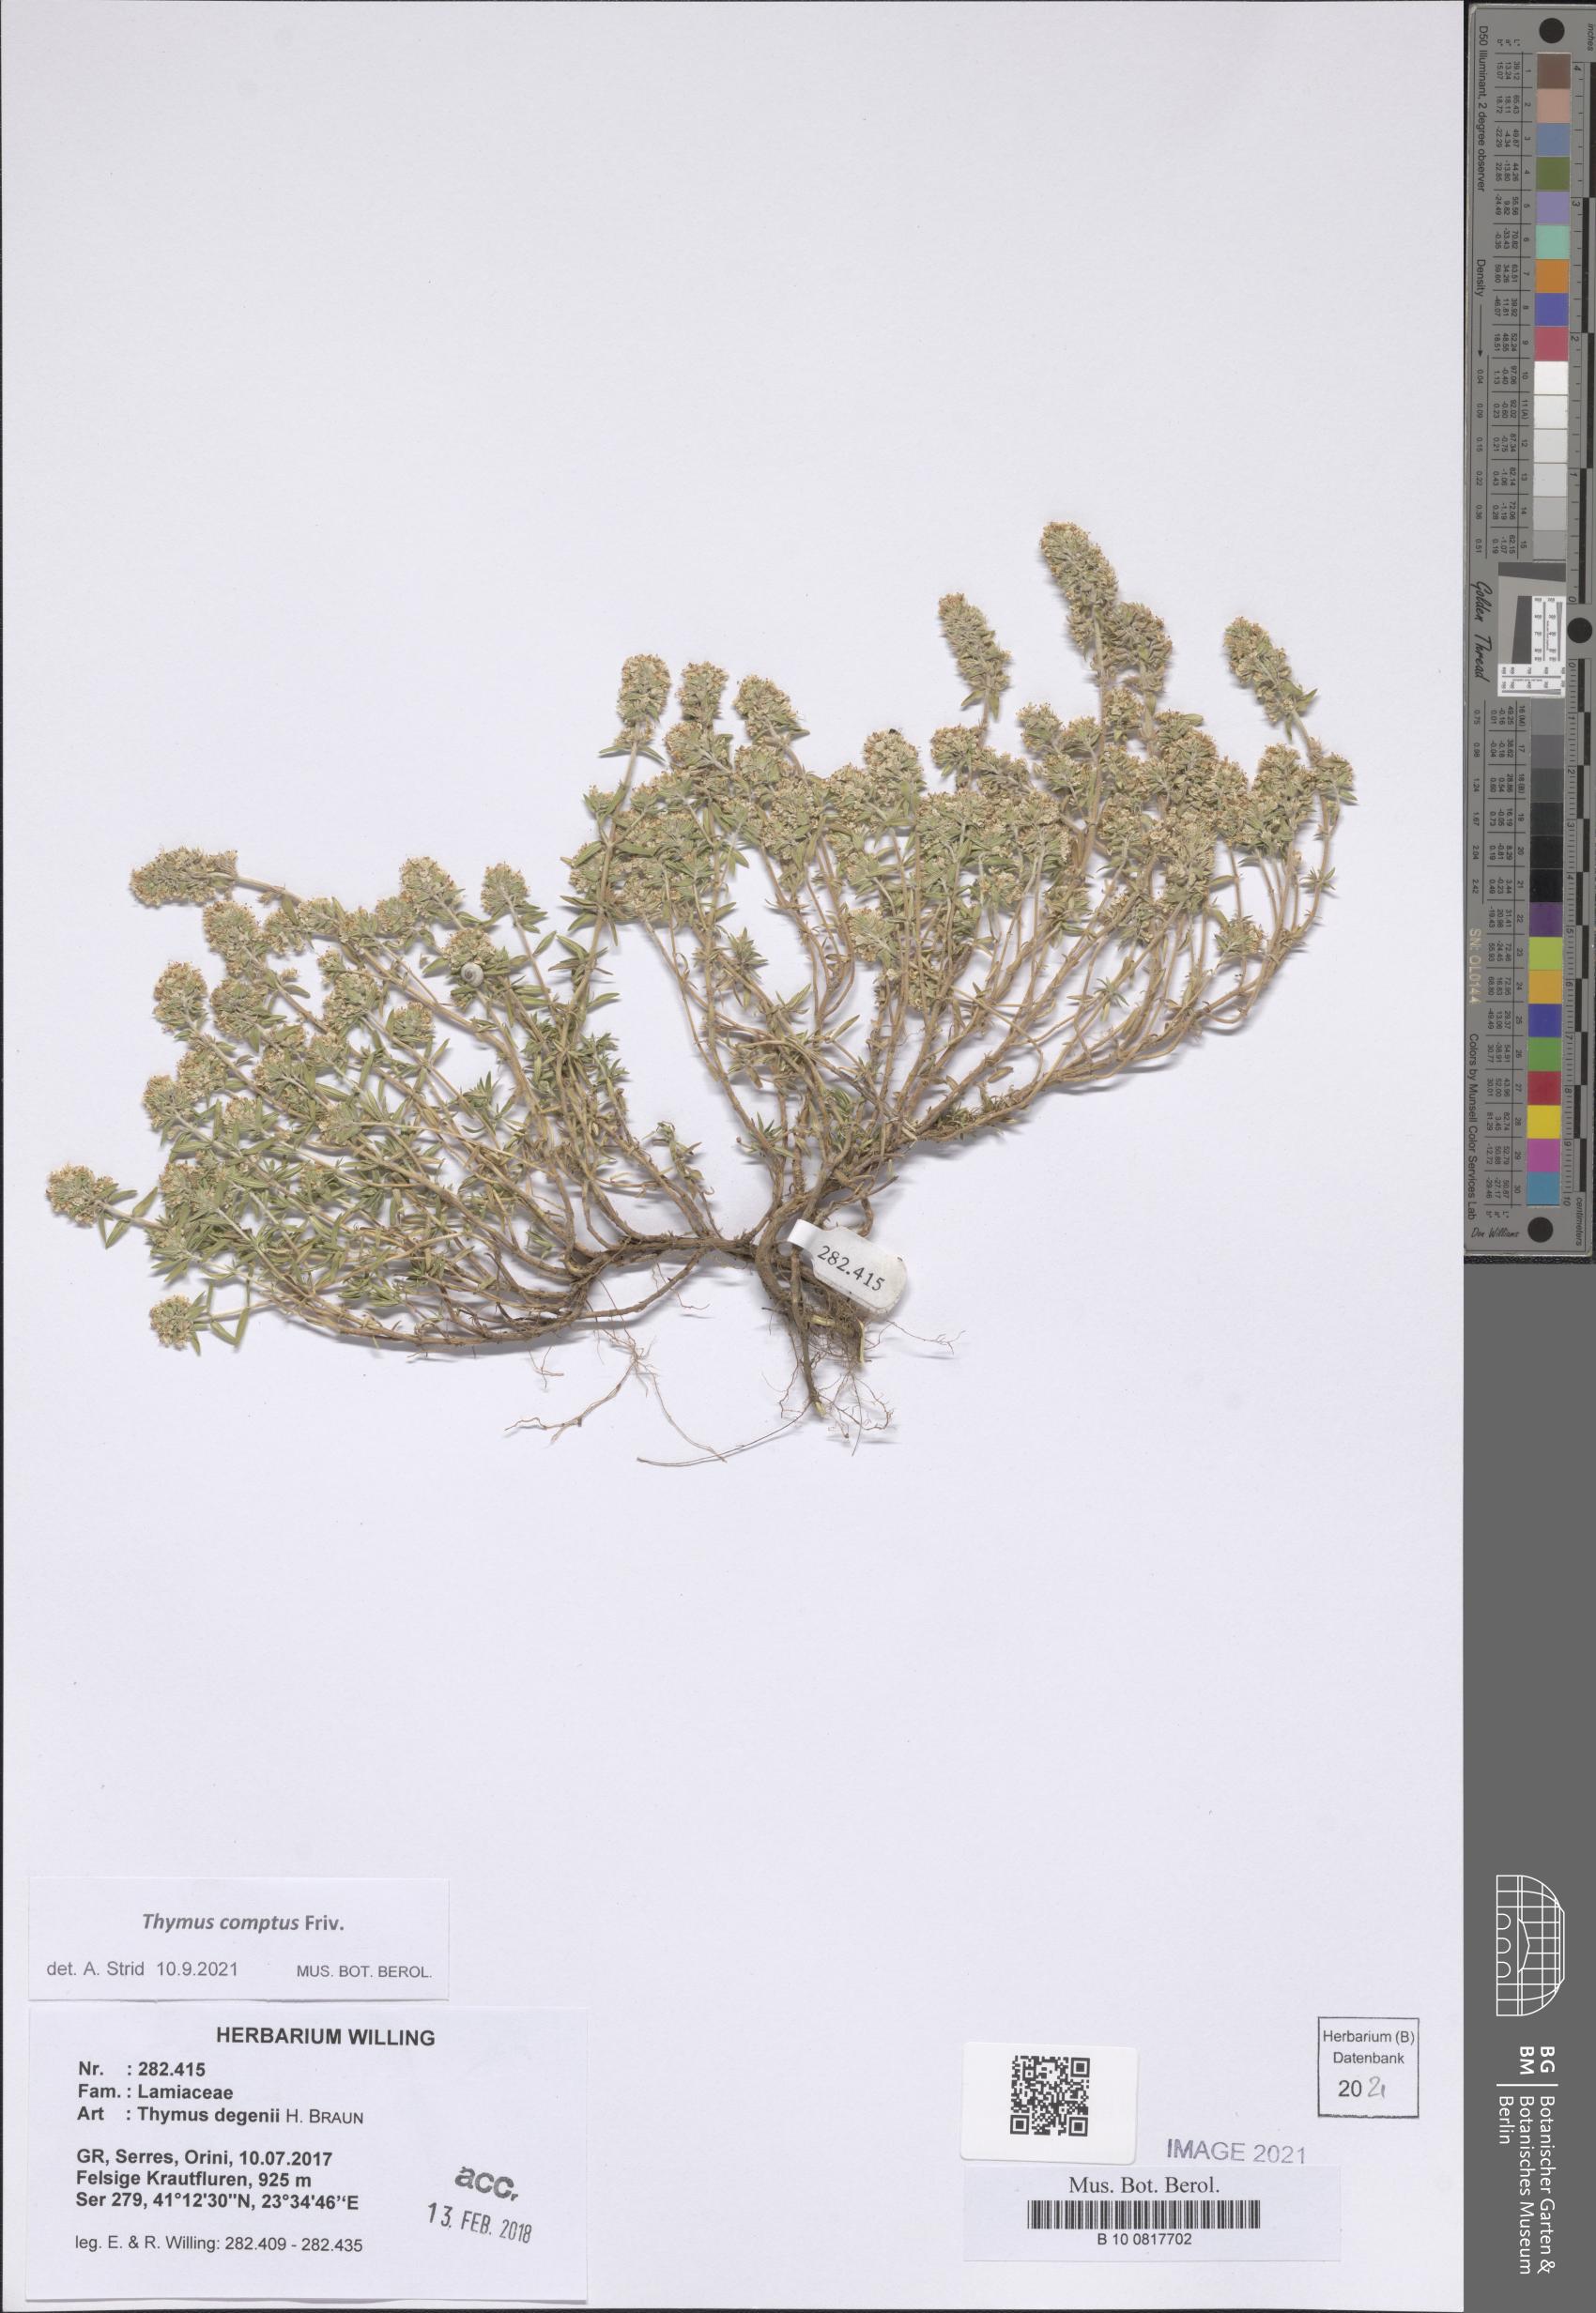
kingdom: Plantae
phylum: Tracheophyta
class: Magnoliopsida
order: Lamiales
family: Lamiaceae
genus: Thymus
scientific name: Thymus comptus
